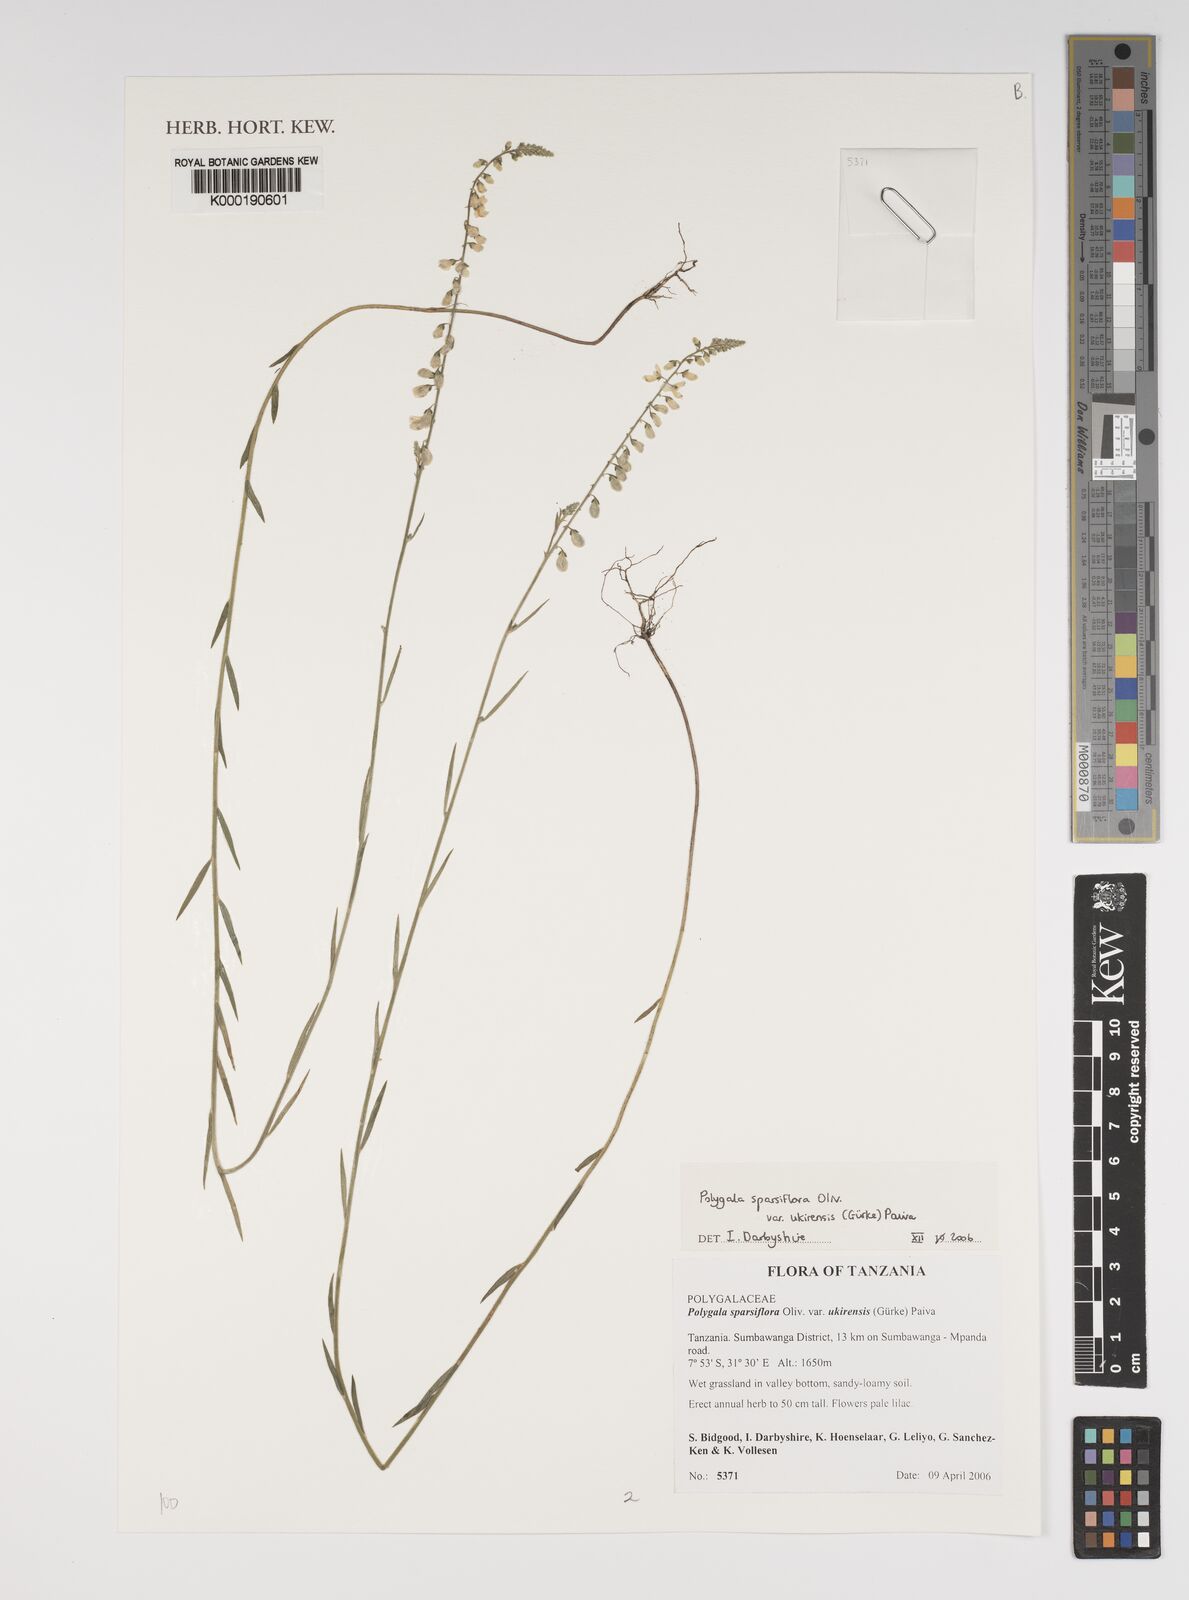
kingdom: Plantae
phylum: Tracheophyta
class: Magnoliopsida
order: Fabales
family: Polygalaceae
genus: Polygala
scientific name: Polygala sparsiflora
